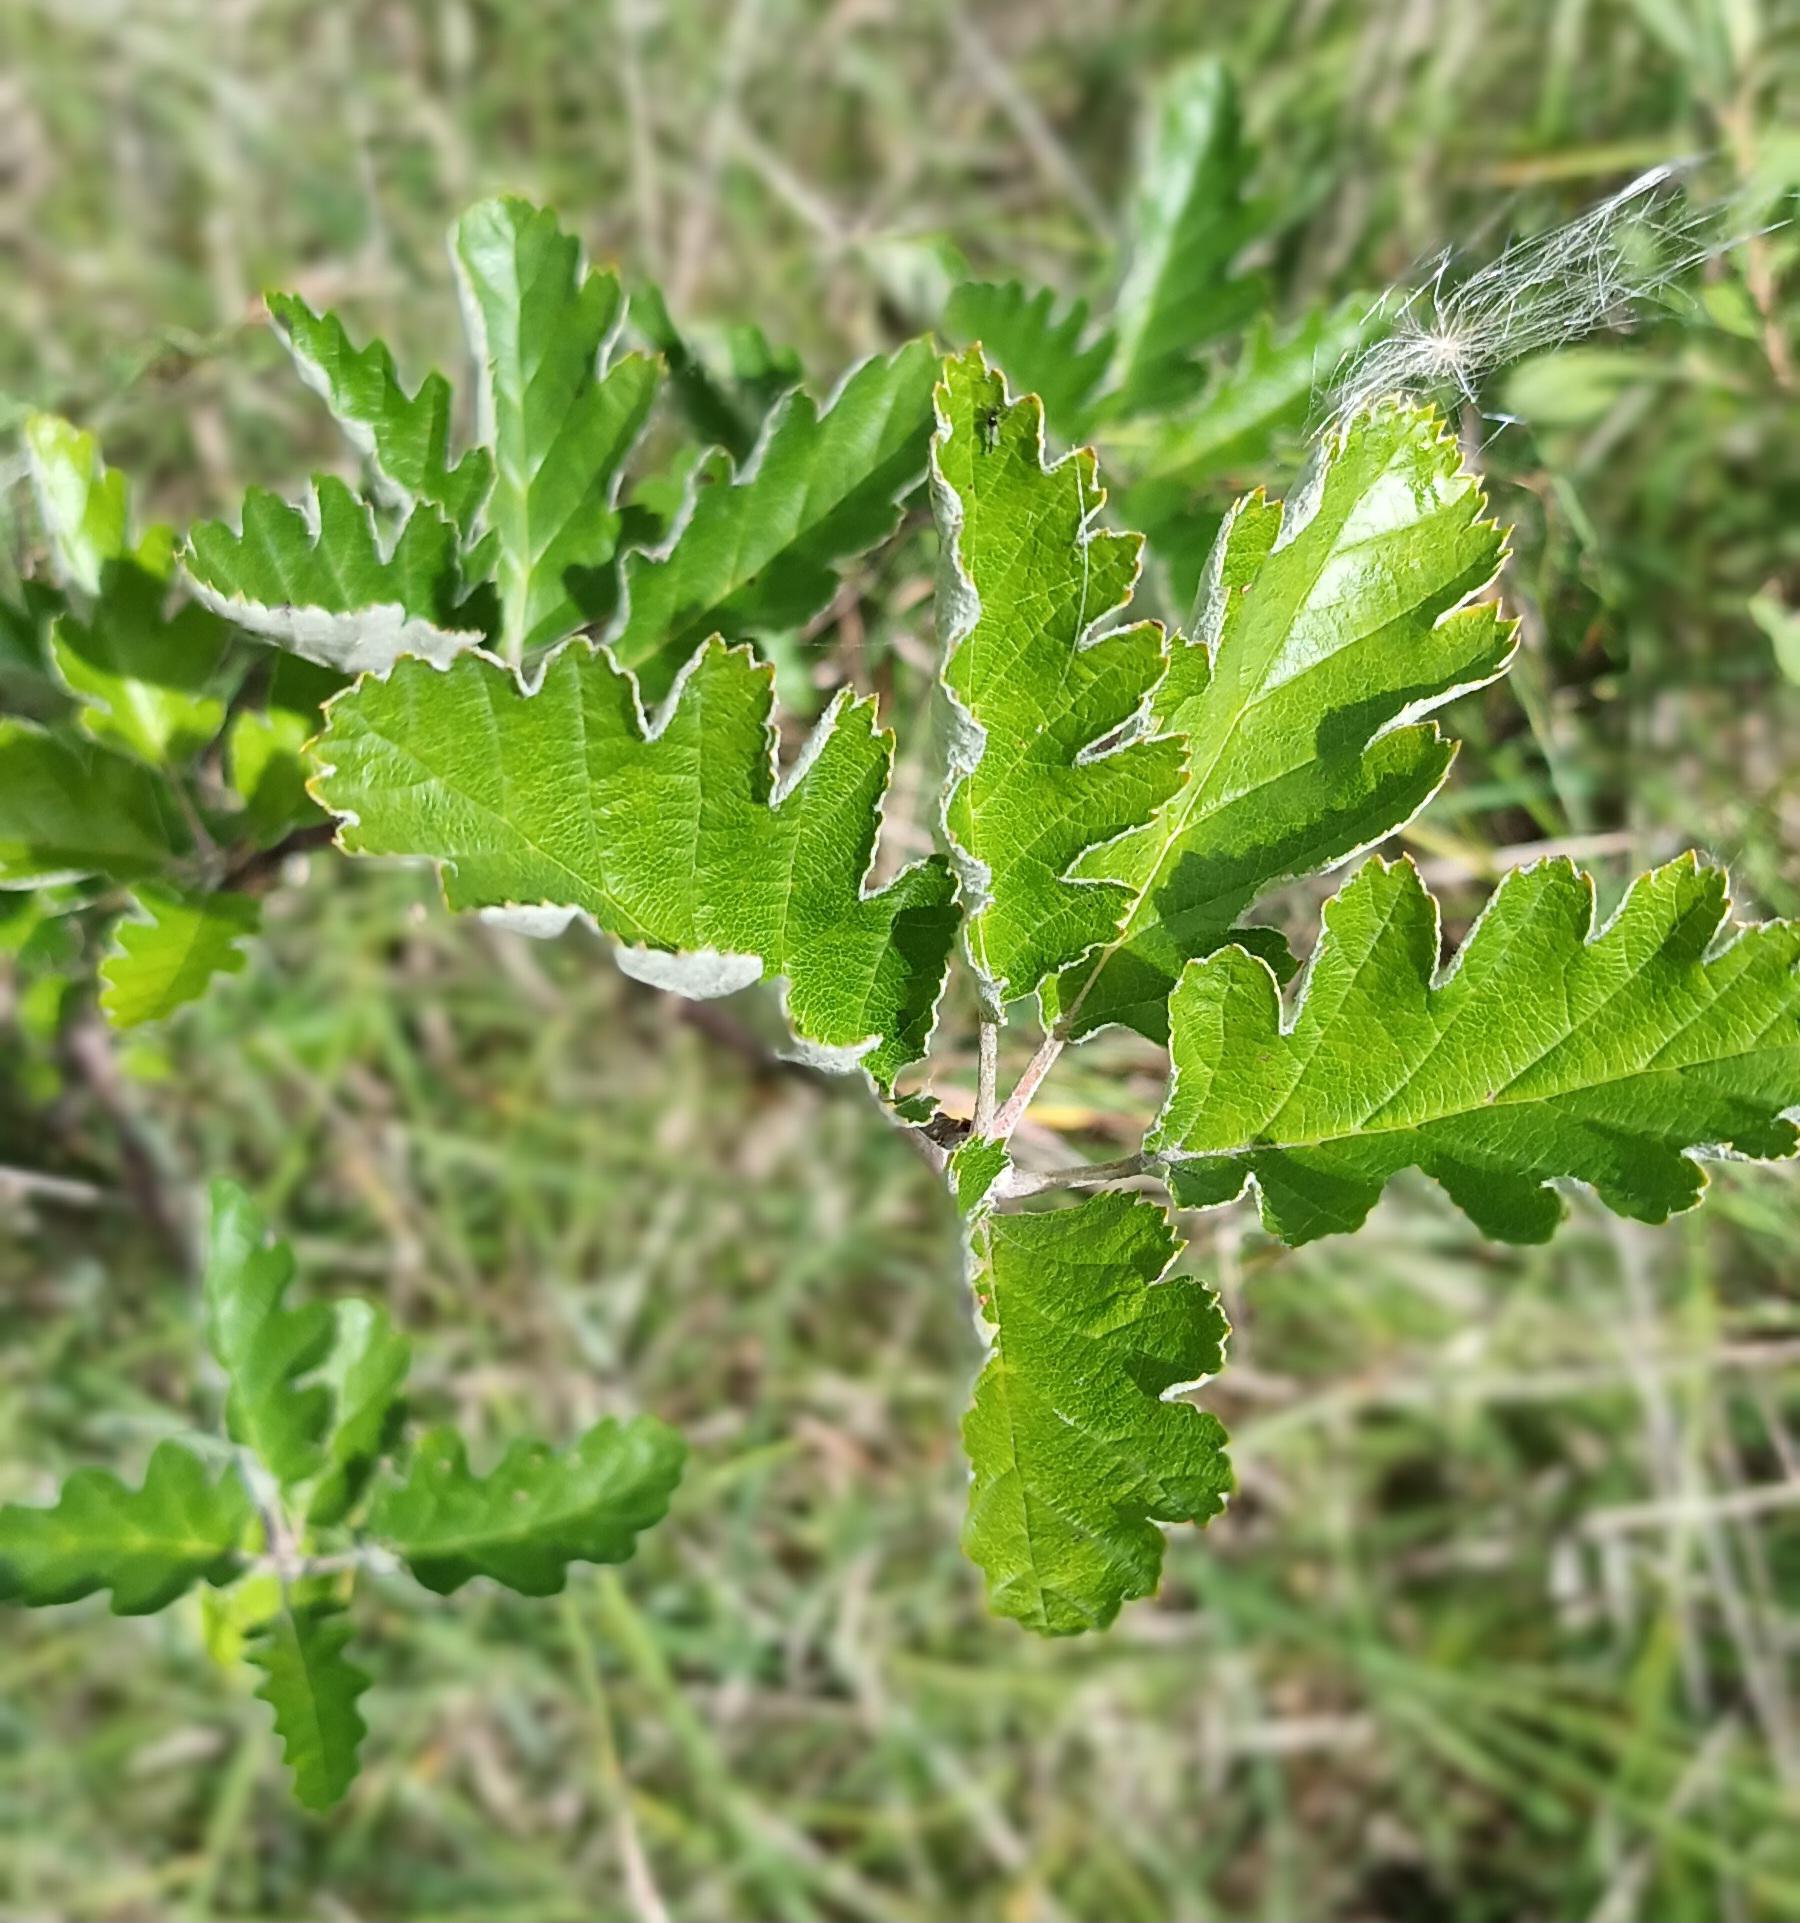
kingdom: Plantae
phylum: Tracheophyta
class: Magnoliopsida
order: Rosales
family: Rosaceae
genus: Scandosorbus
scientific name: Scandosorbus intermedia
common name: Selje-røn
